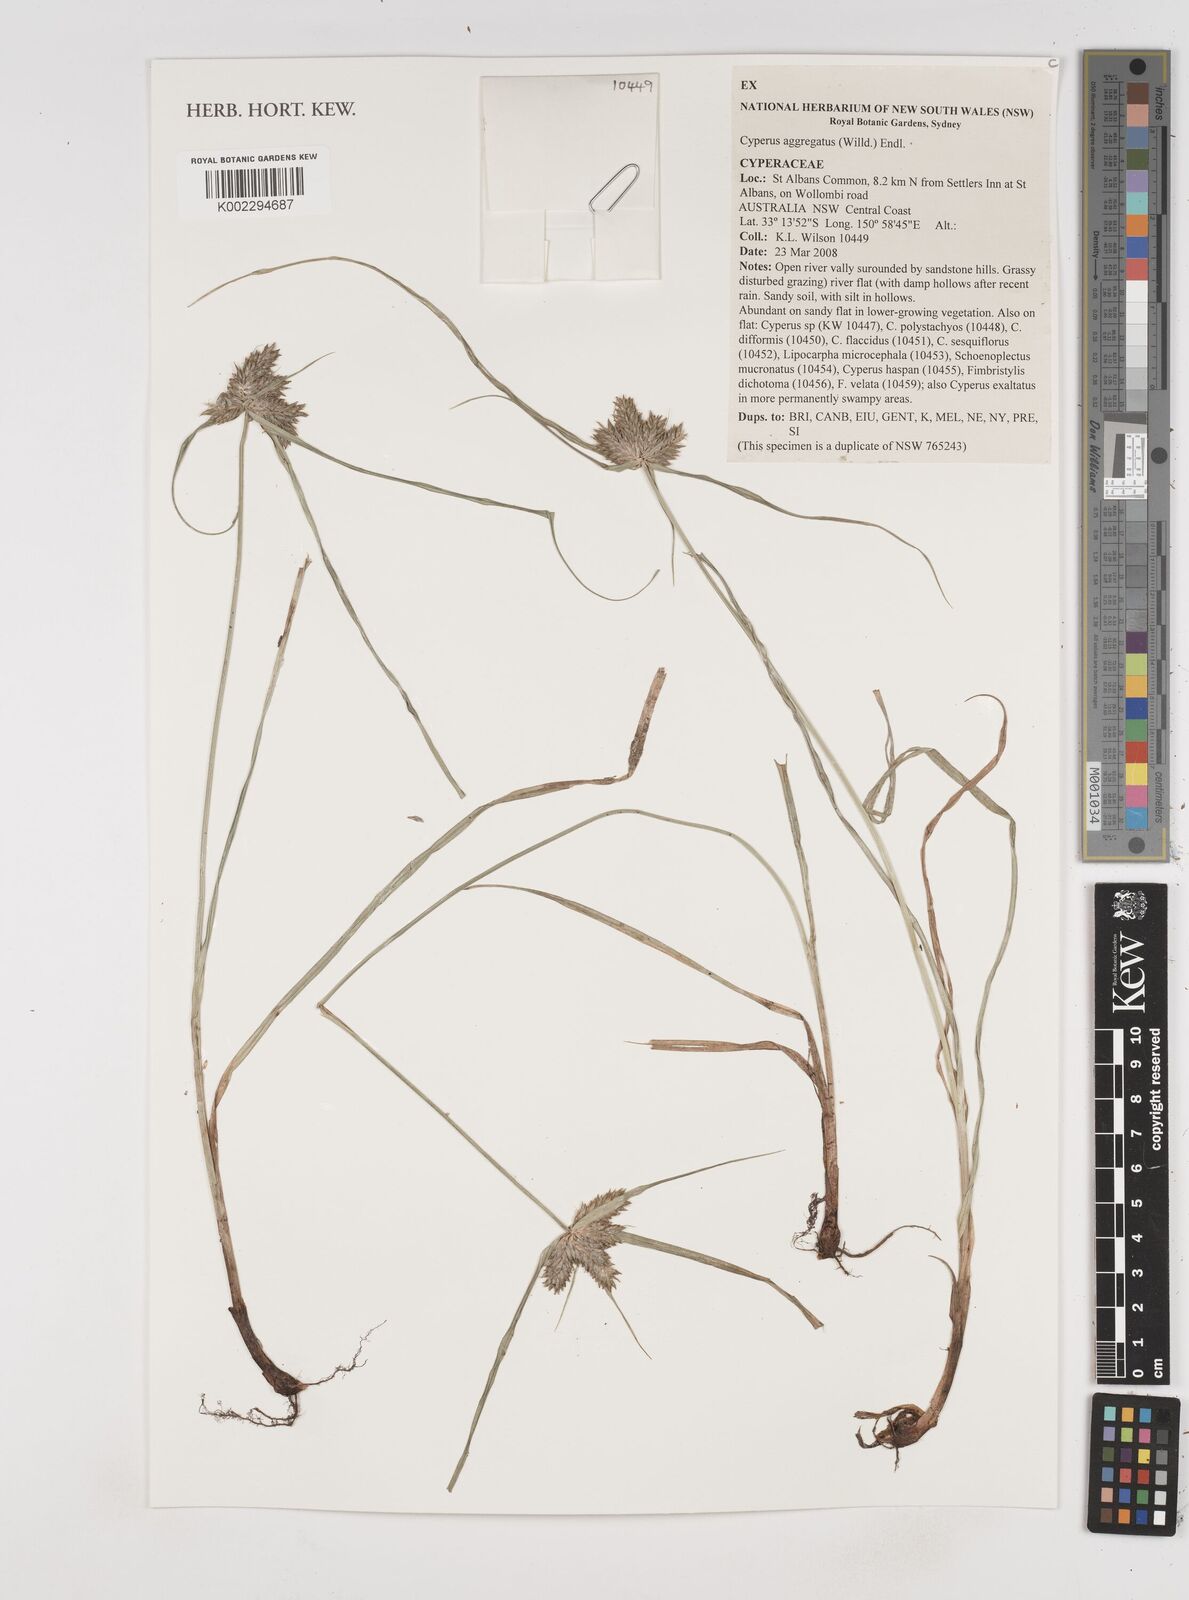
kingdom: Plantae
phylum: Tracheophyta
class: Liliopsida
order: Poales
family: Cyperaceae
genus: Cyperus
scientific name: Cyperus aggregatus
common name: Inflatedscale flatsedge
